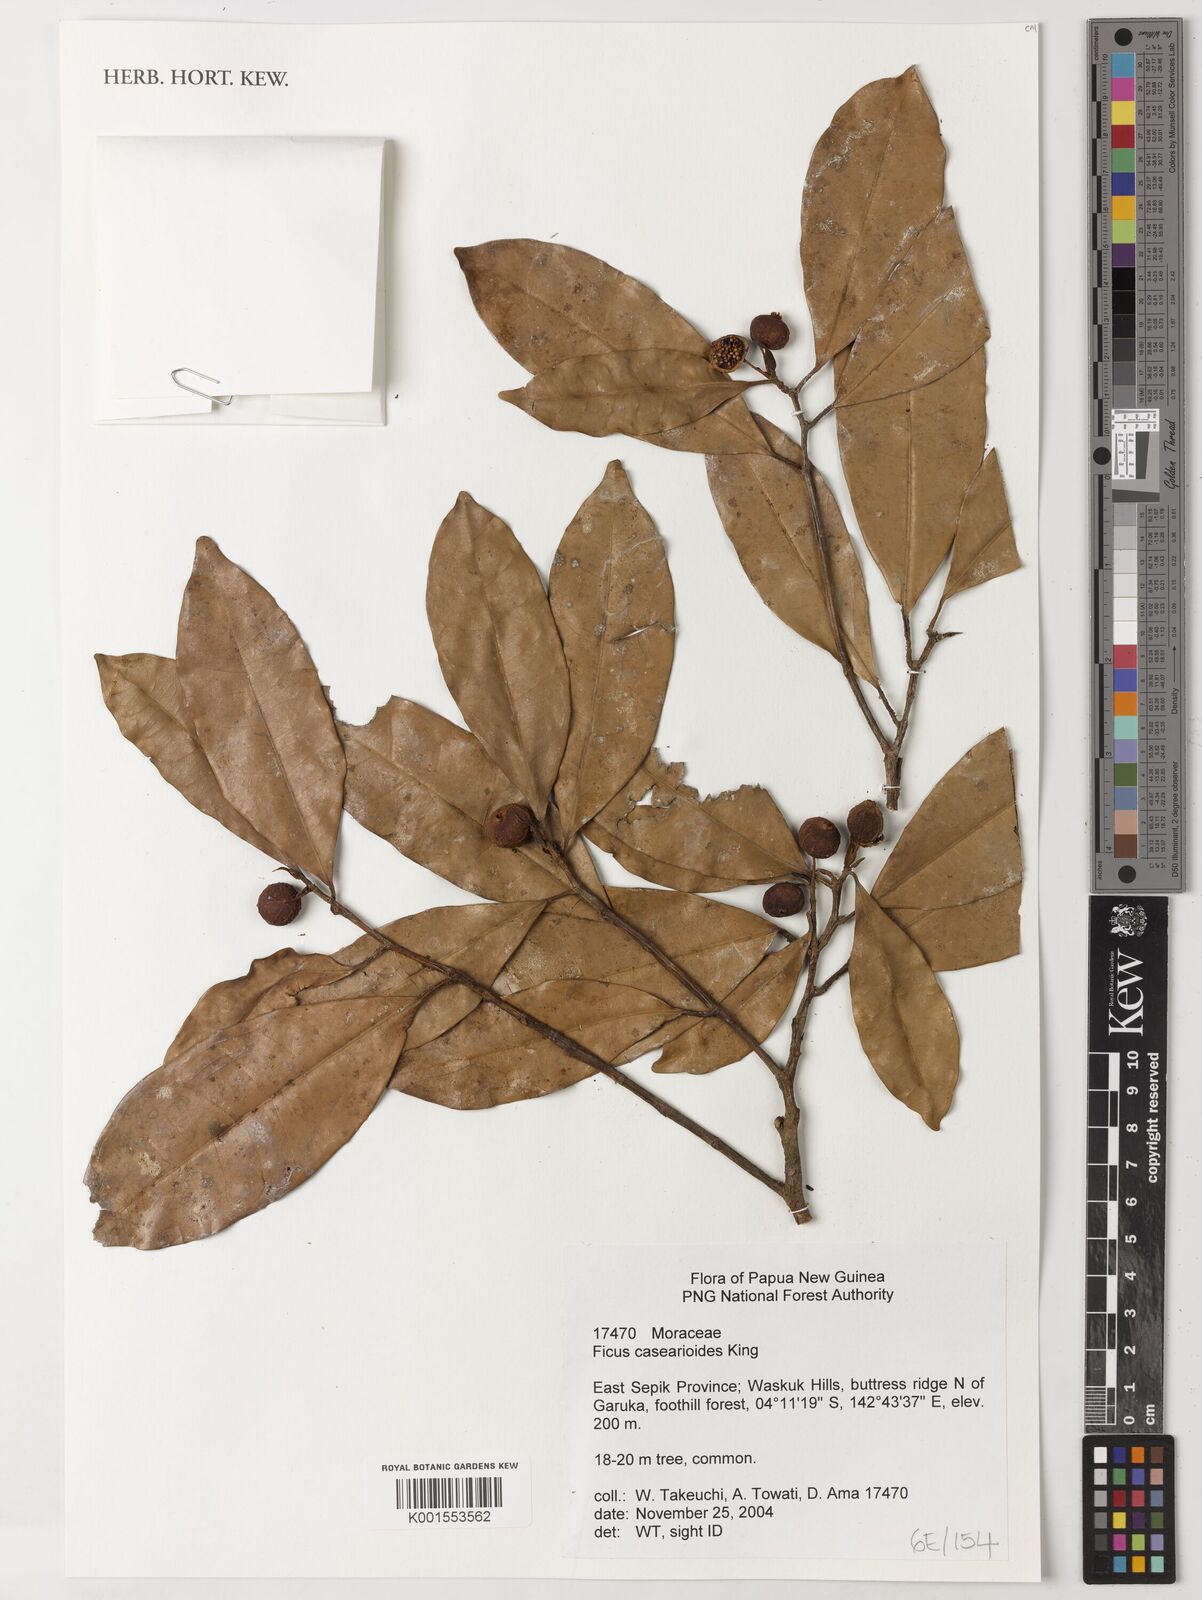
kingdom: Plantae
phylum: Tracheophyta
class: Magnoliopsida
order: Rosales
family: Moraceae
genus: Ficus
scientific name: Ficus casearioides
